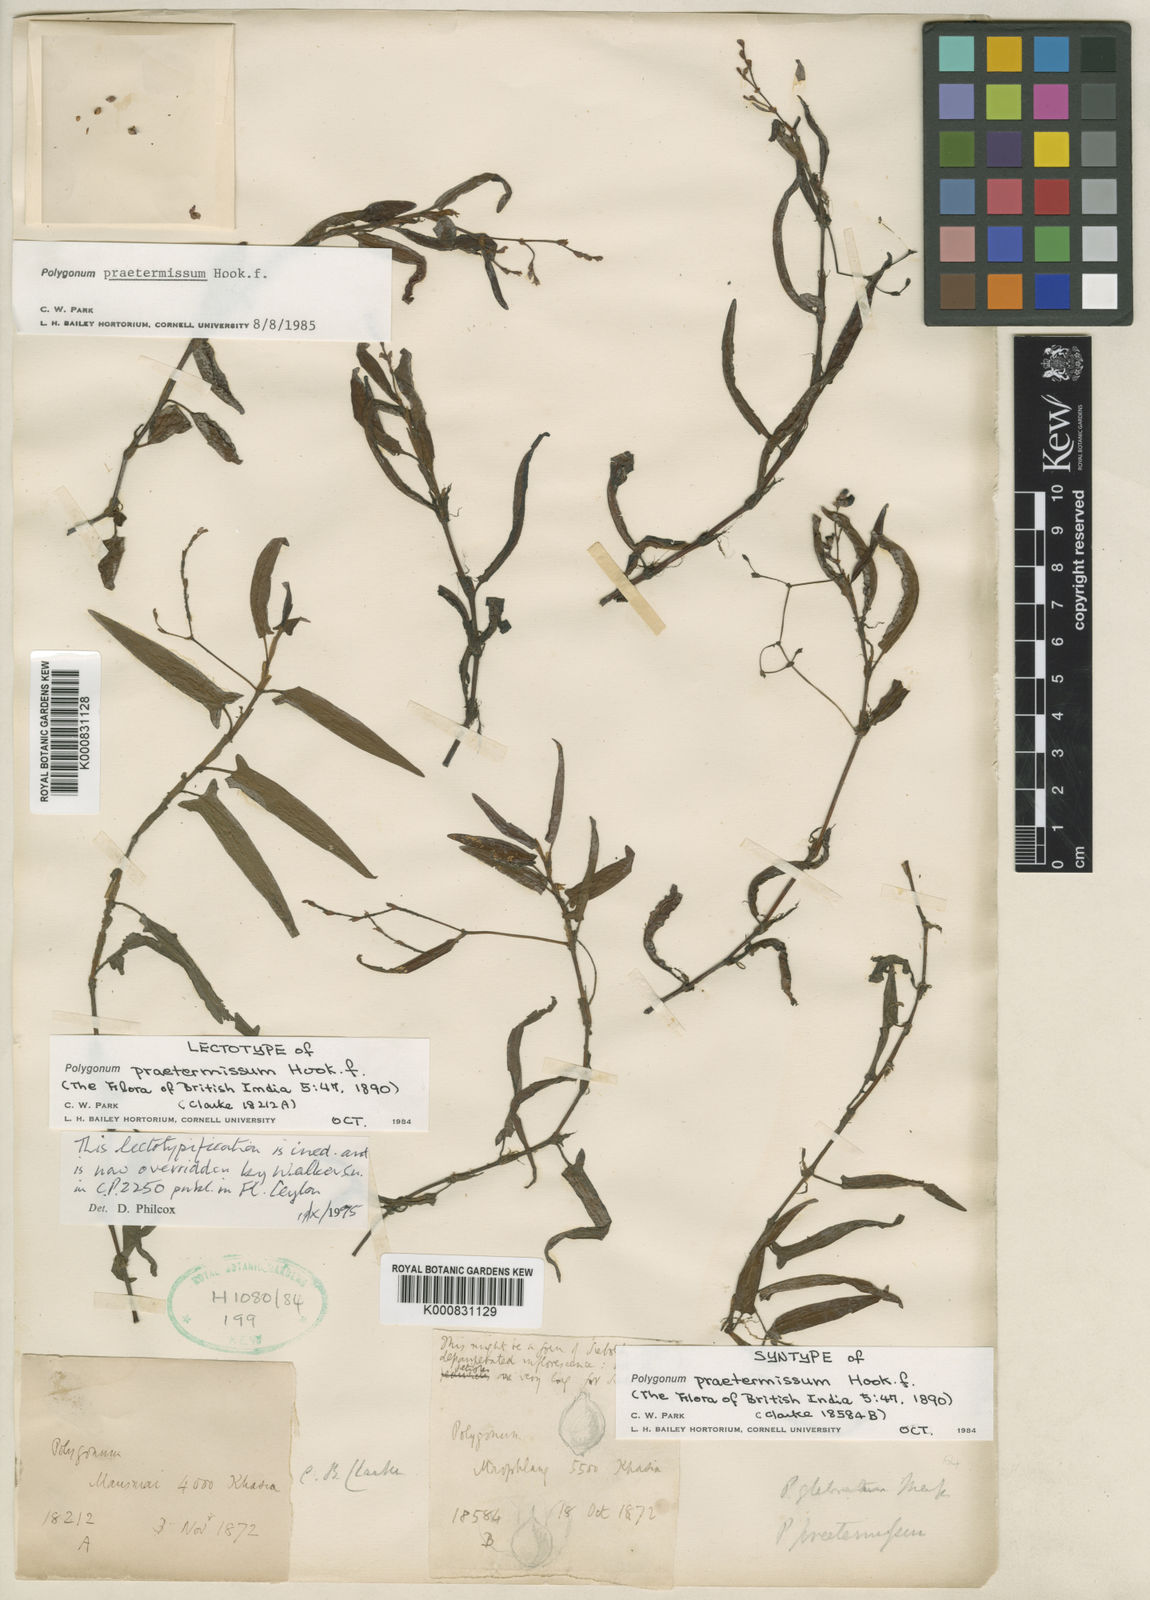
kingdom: Plantae
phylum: Tracheophyta
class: Magnoliopsida
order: Caryophyllales
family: Polygonaceae
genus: Persicaria
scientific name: Persicaria praetermissa
